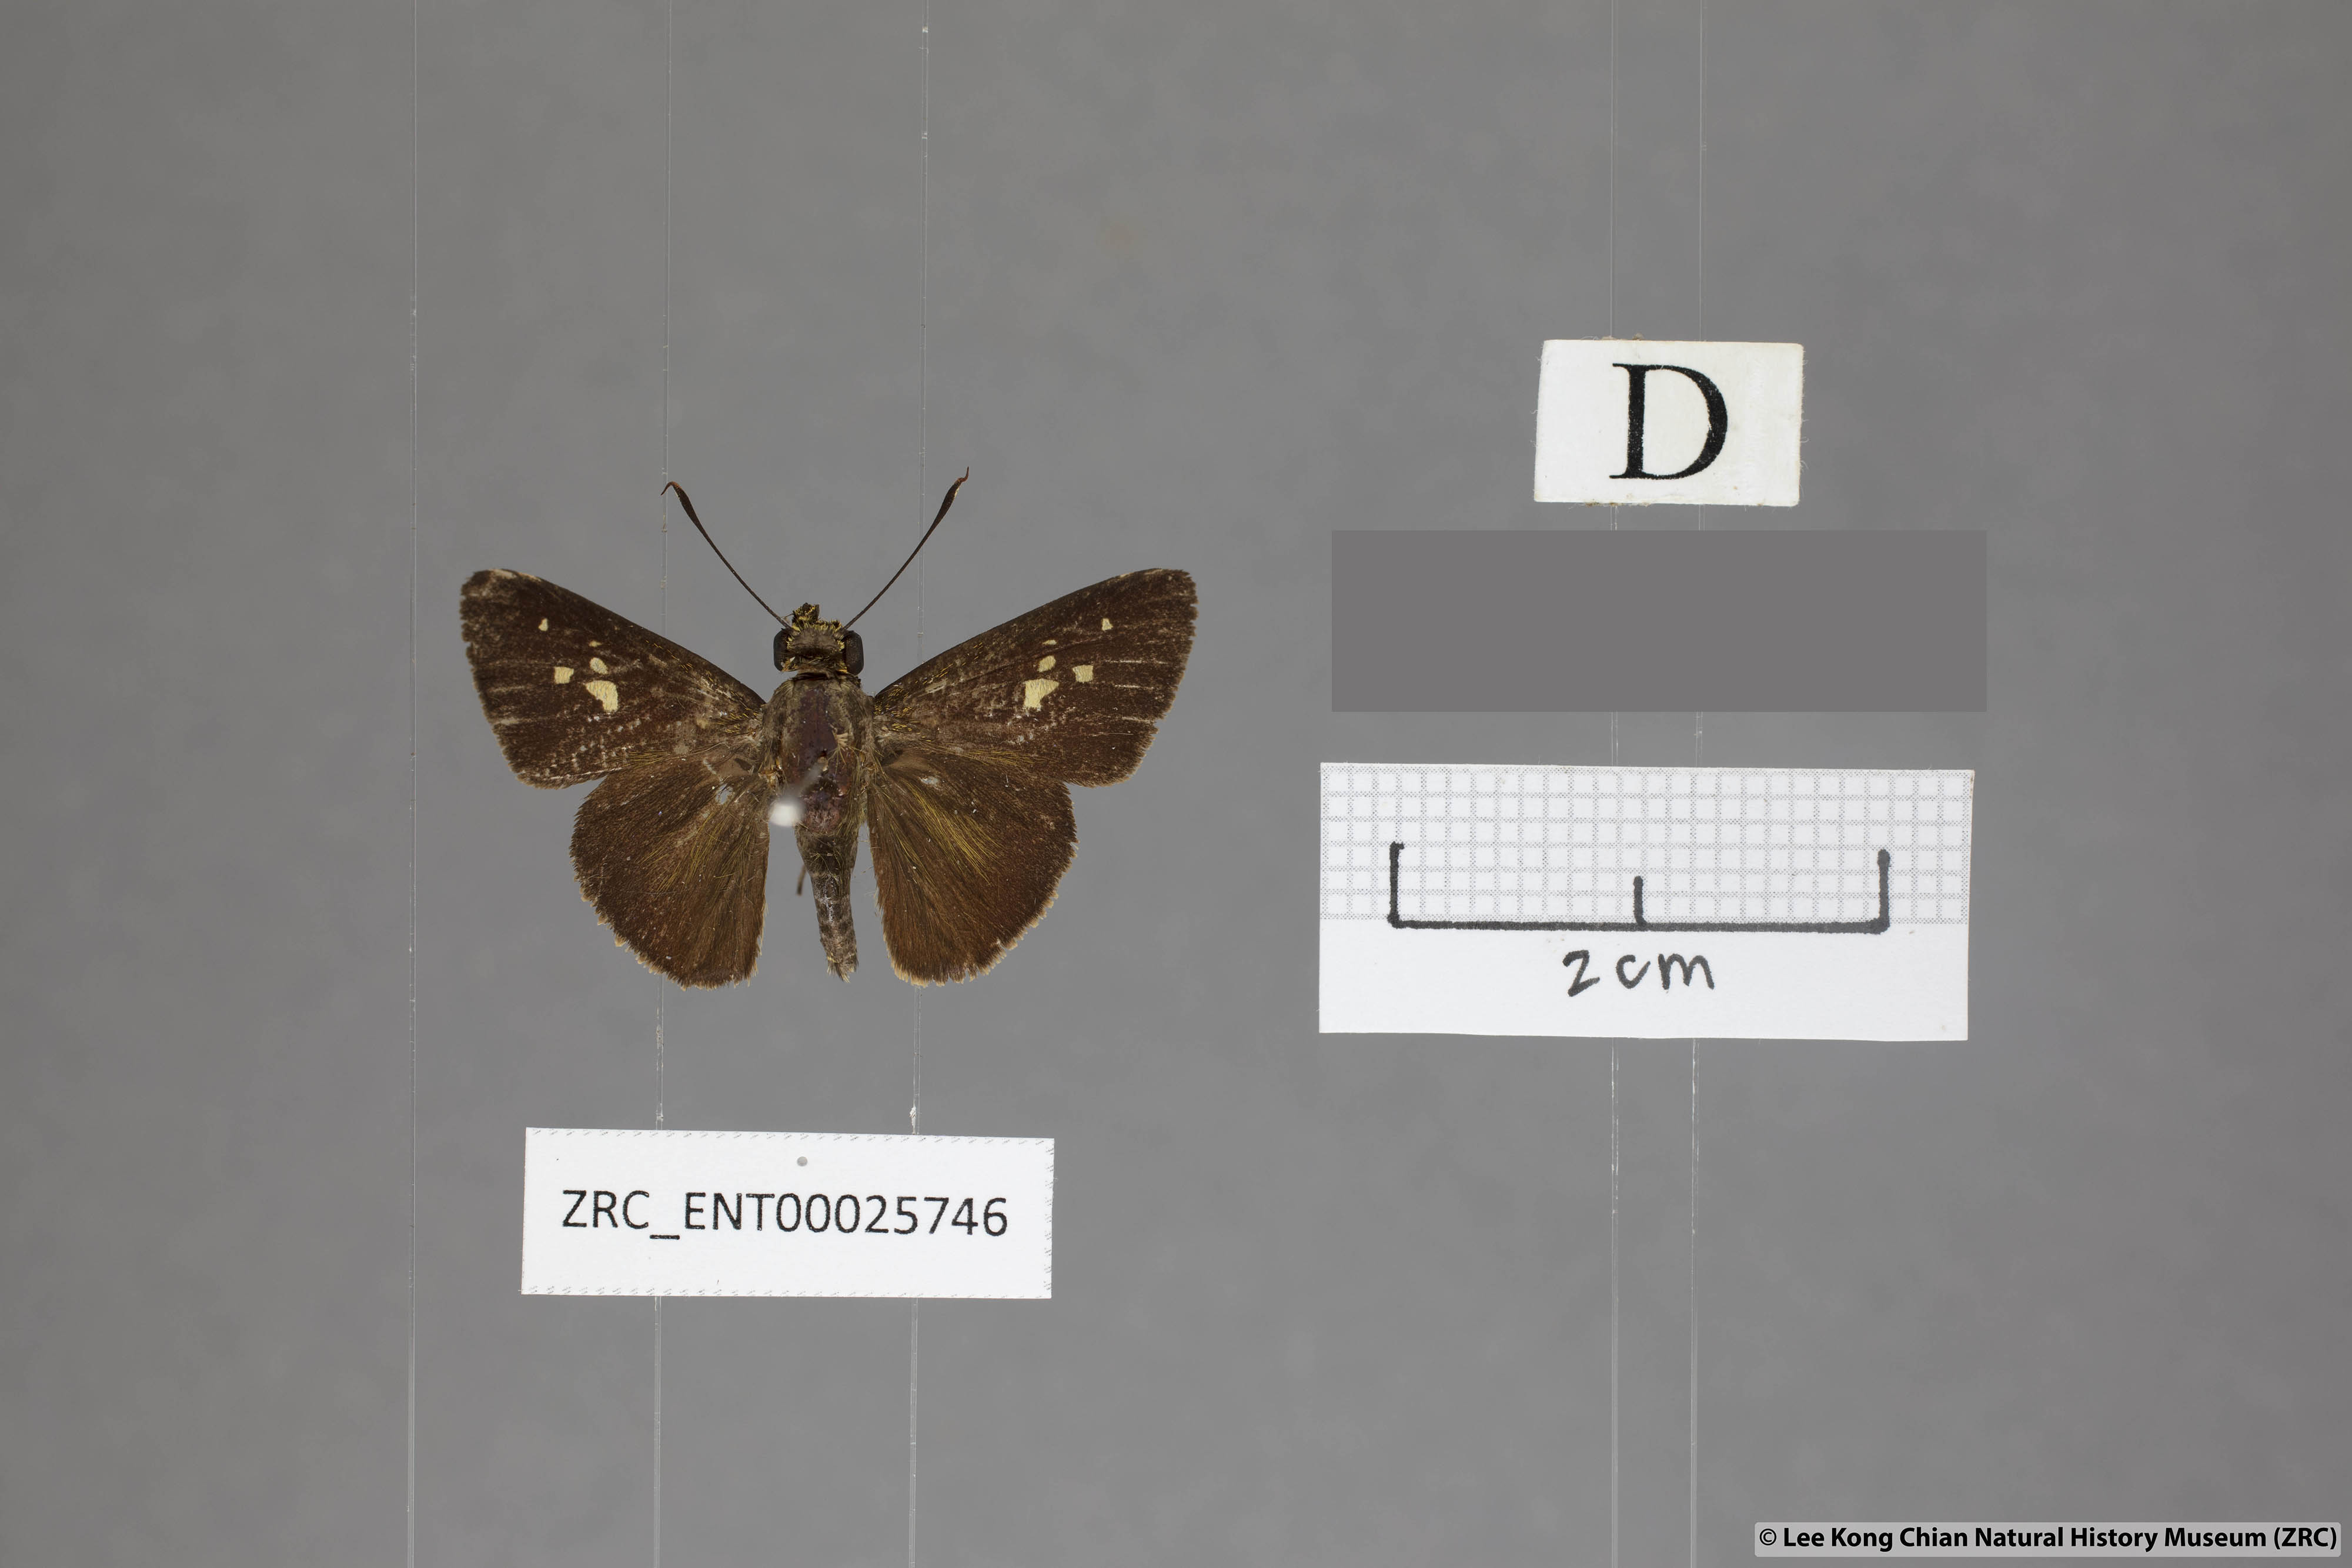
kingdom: Animalia
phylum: Arthropoda
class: Insecta
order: Lepidoptera
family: Hesperiidae
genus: Zographetus
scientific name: Zographetus rama
